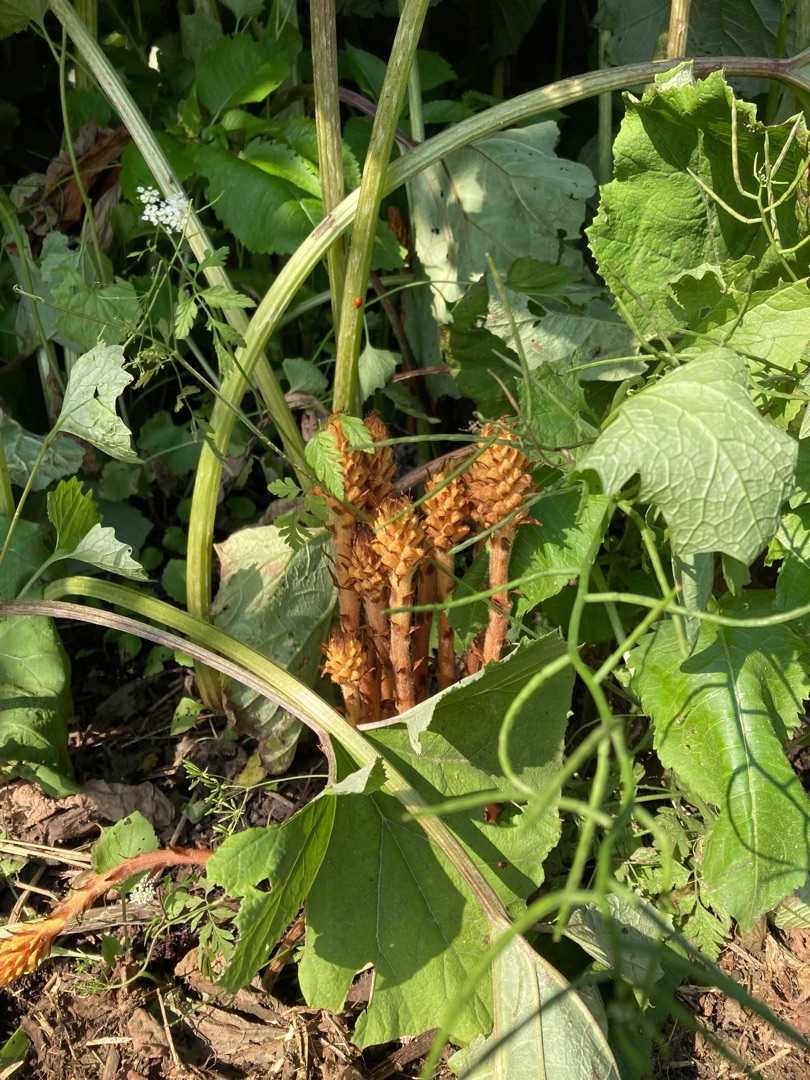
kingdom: Plantae
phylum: Tracheophyta
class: Magnoliopsida
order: Lamiales
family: Orobanchaceae
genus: Orobanche
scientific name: Orobanche flava
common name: Gul gyvelkvæler
